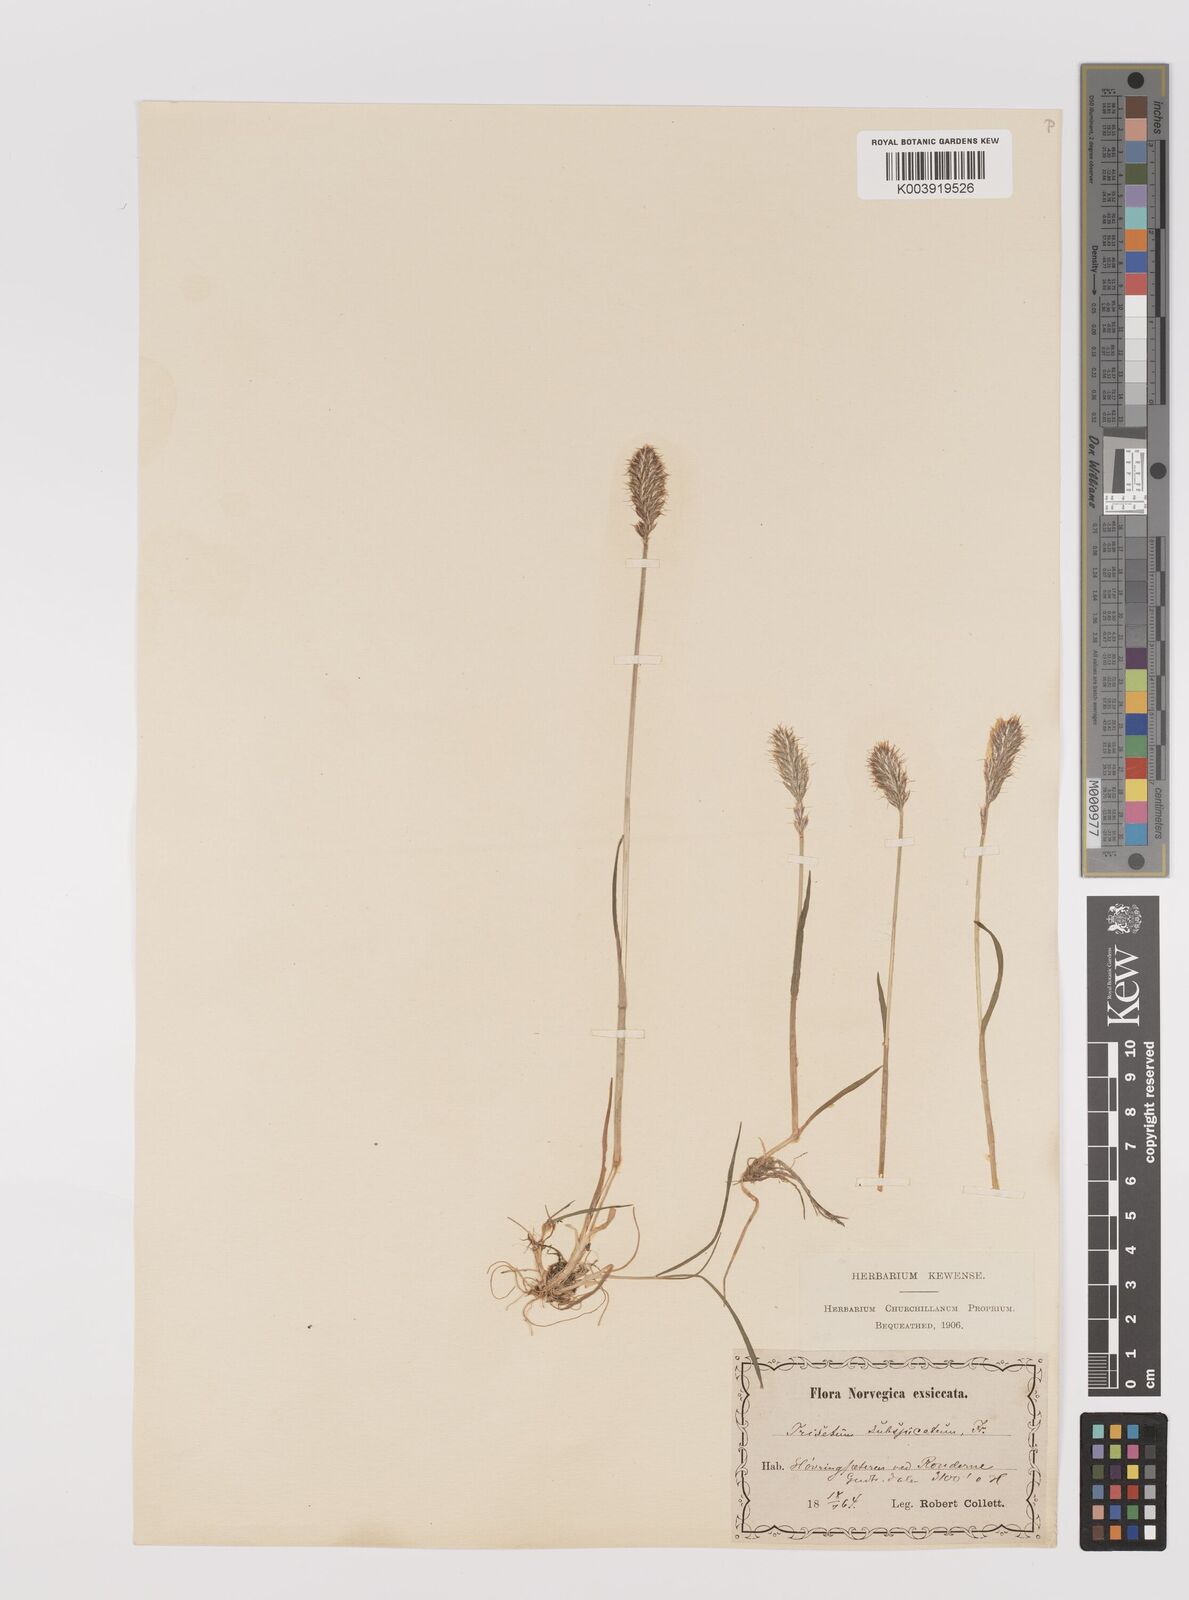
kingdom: Plantae
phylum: Tracheophyta
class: Liliopsida
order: Poales
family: Poaceae
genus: Koeleria
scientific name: Koeleria spicata
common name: Mountain trisetum
